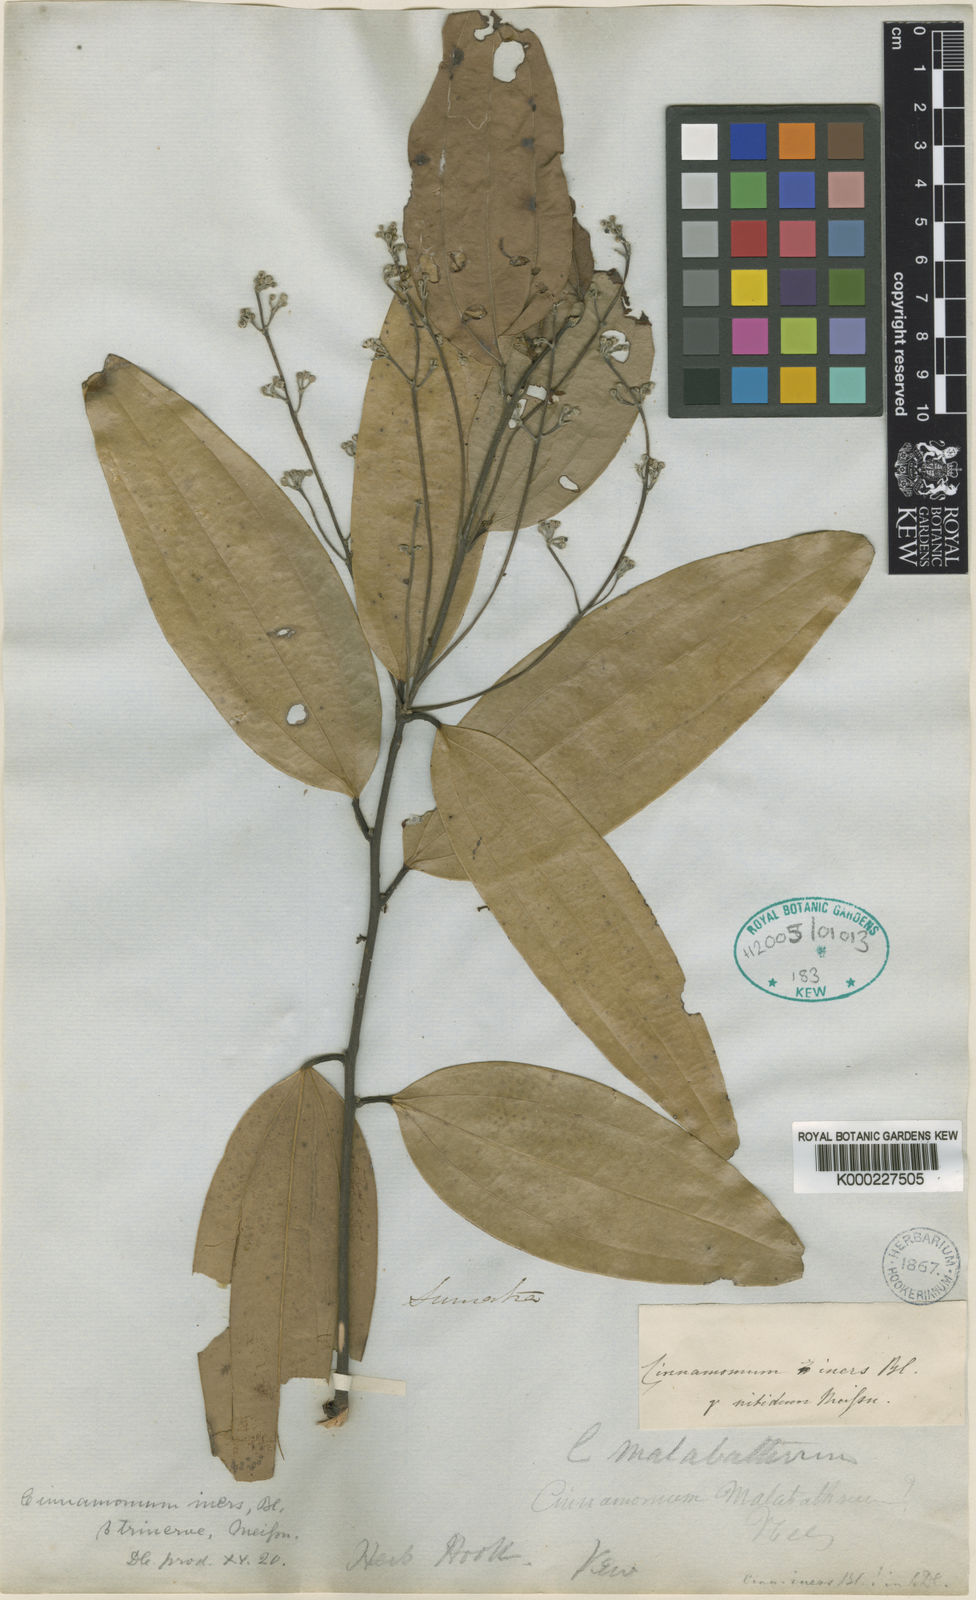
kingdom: Plantae
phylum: Tracheophyta
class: Magnoliopsida
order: Laurales
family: Lauraceae
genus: Cinnamomum
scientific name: Cinnamomum iners
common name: Wild cinnamon
